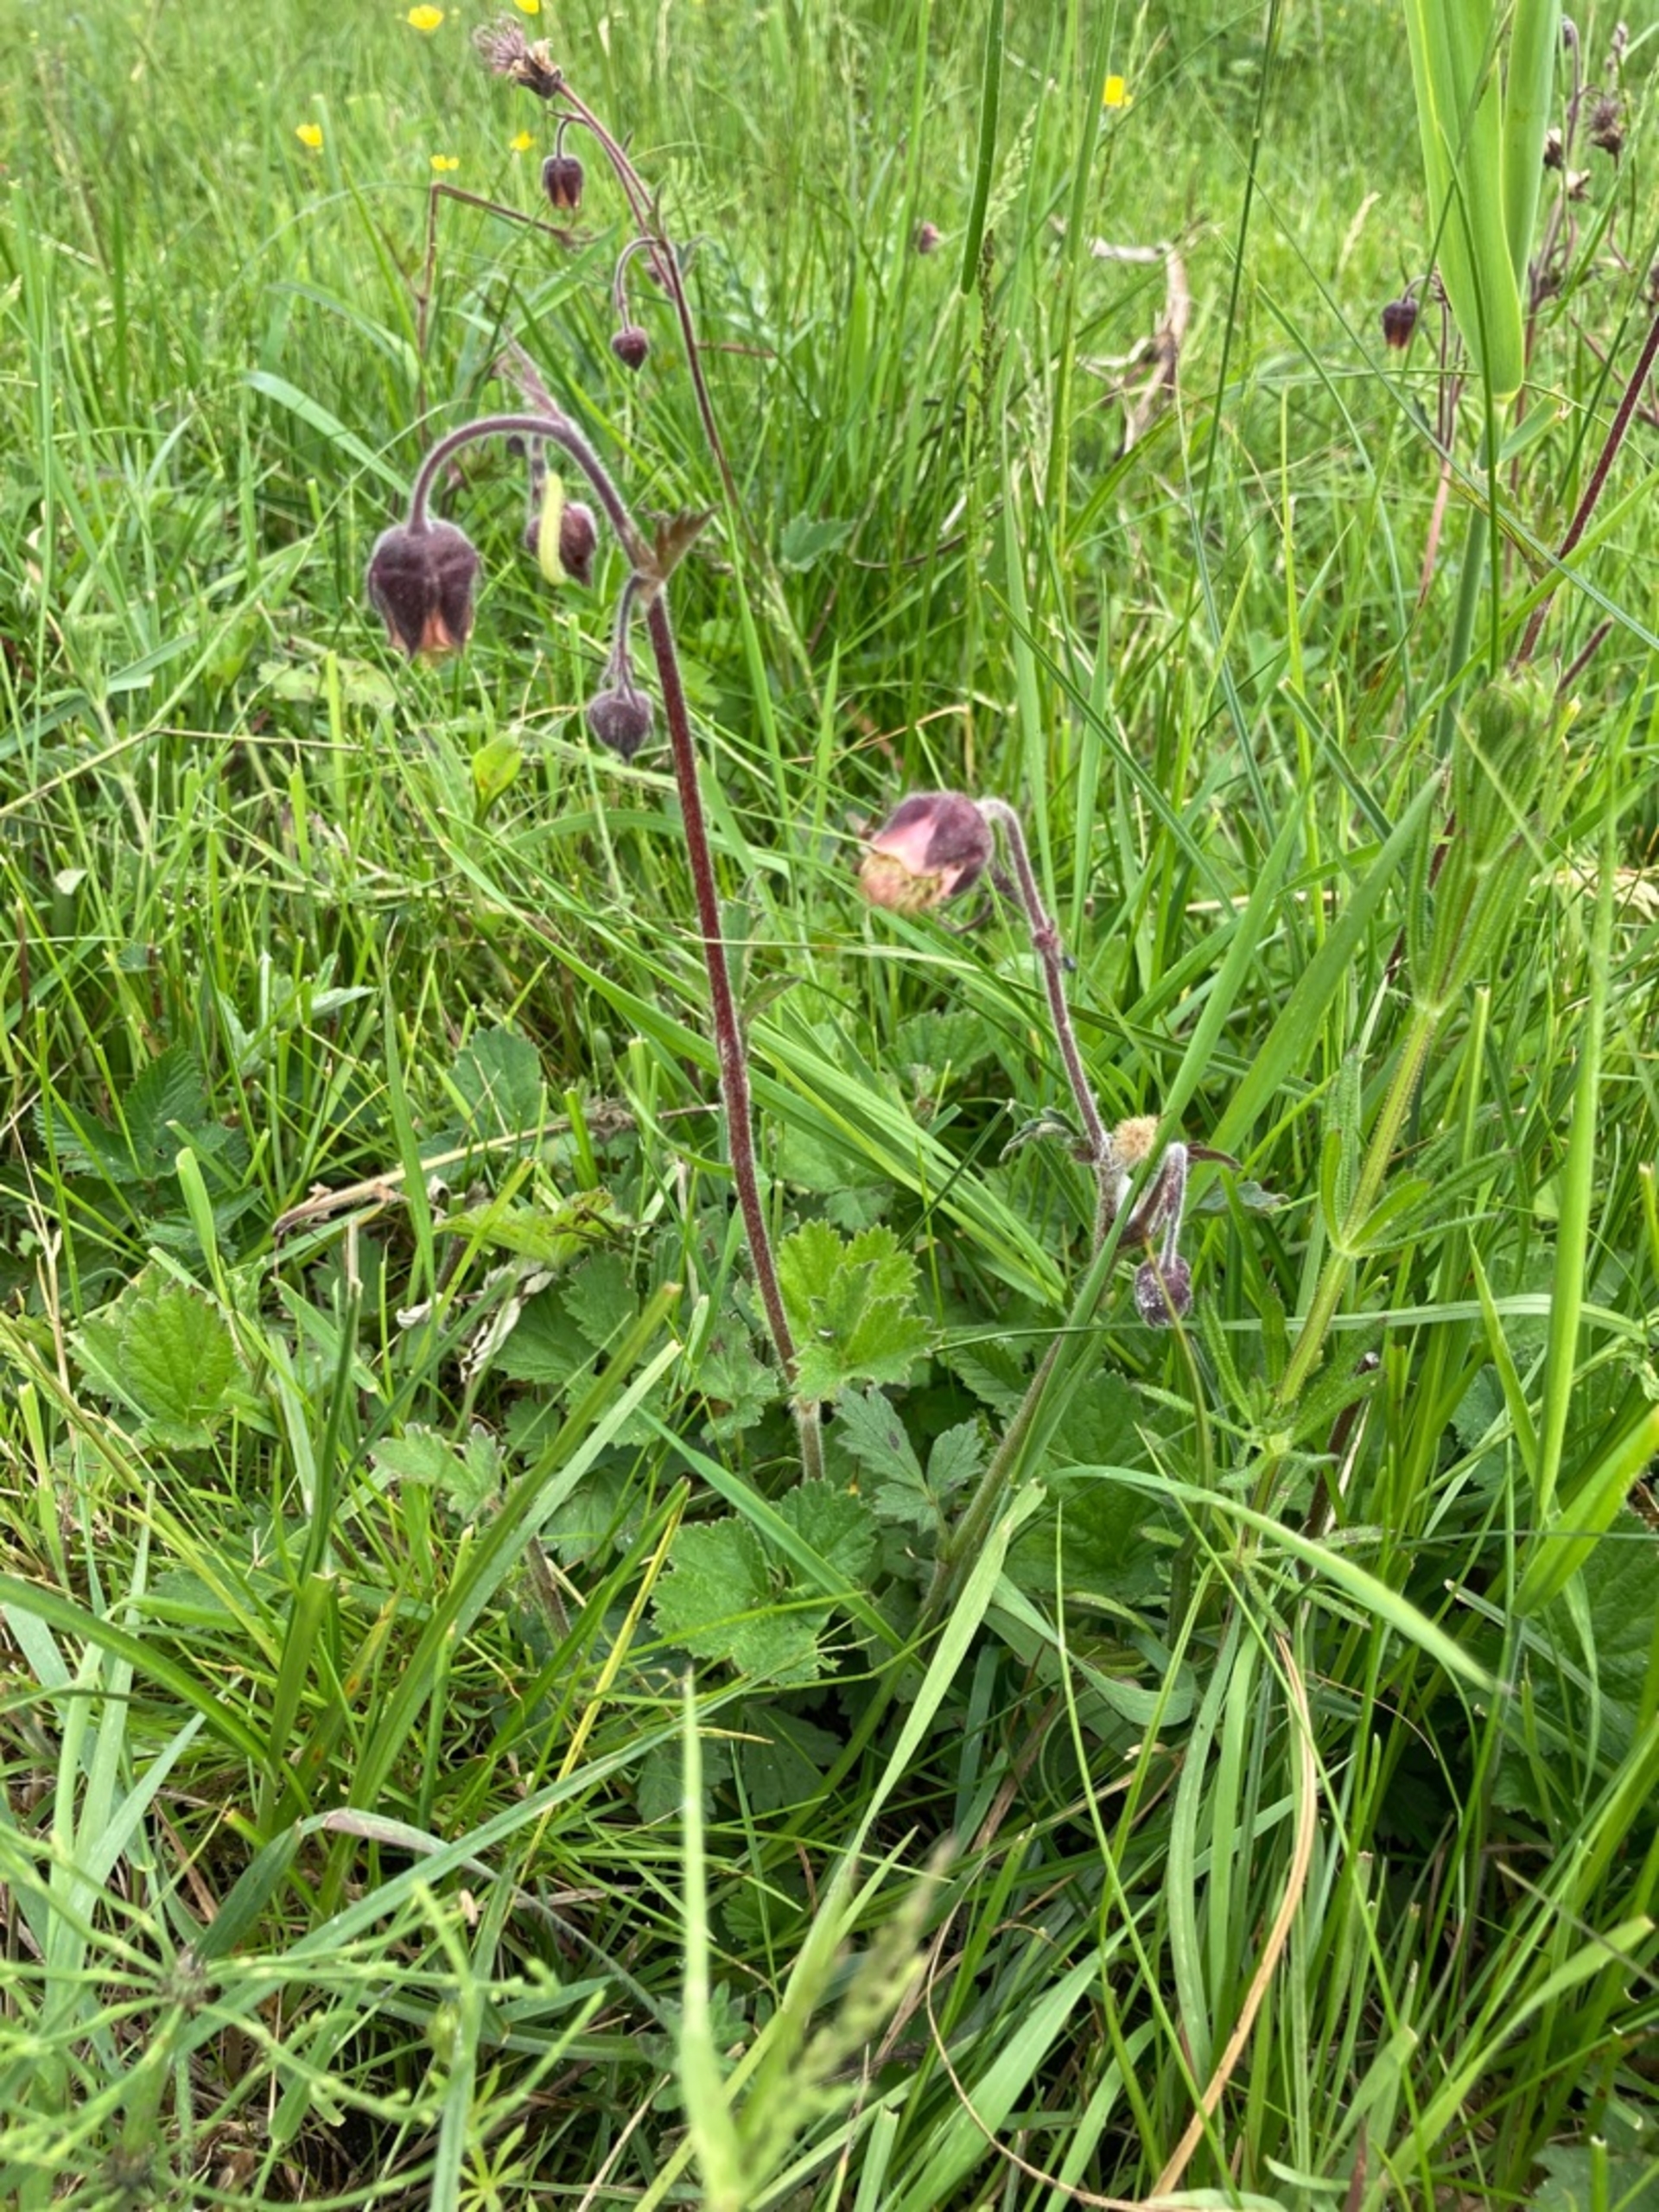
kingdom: Plantae
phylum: Tracheophyta
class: Magnoliopsida
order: Rosales
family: Rosaceae
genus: Geum
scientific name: Geum rivale
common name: Eng-nellikerod
